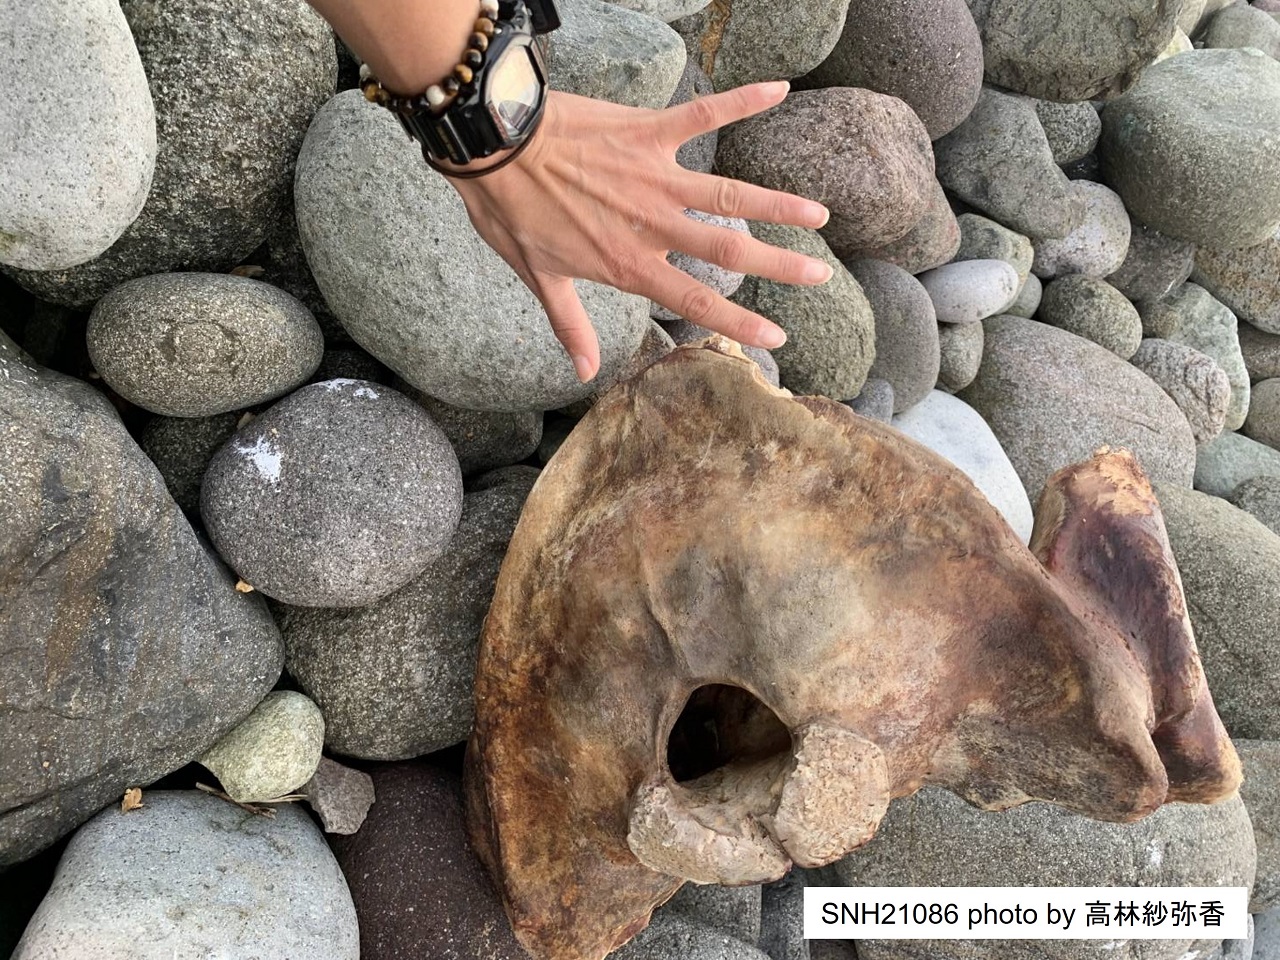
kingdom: Animalia
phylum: Chordata
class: Mammalia
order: Cetacea
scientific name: Cetacea
